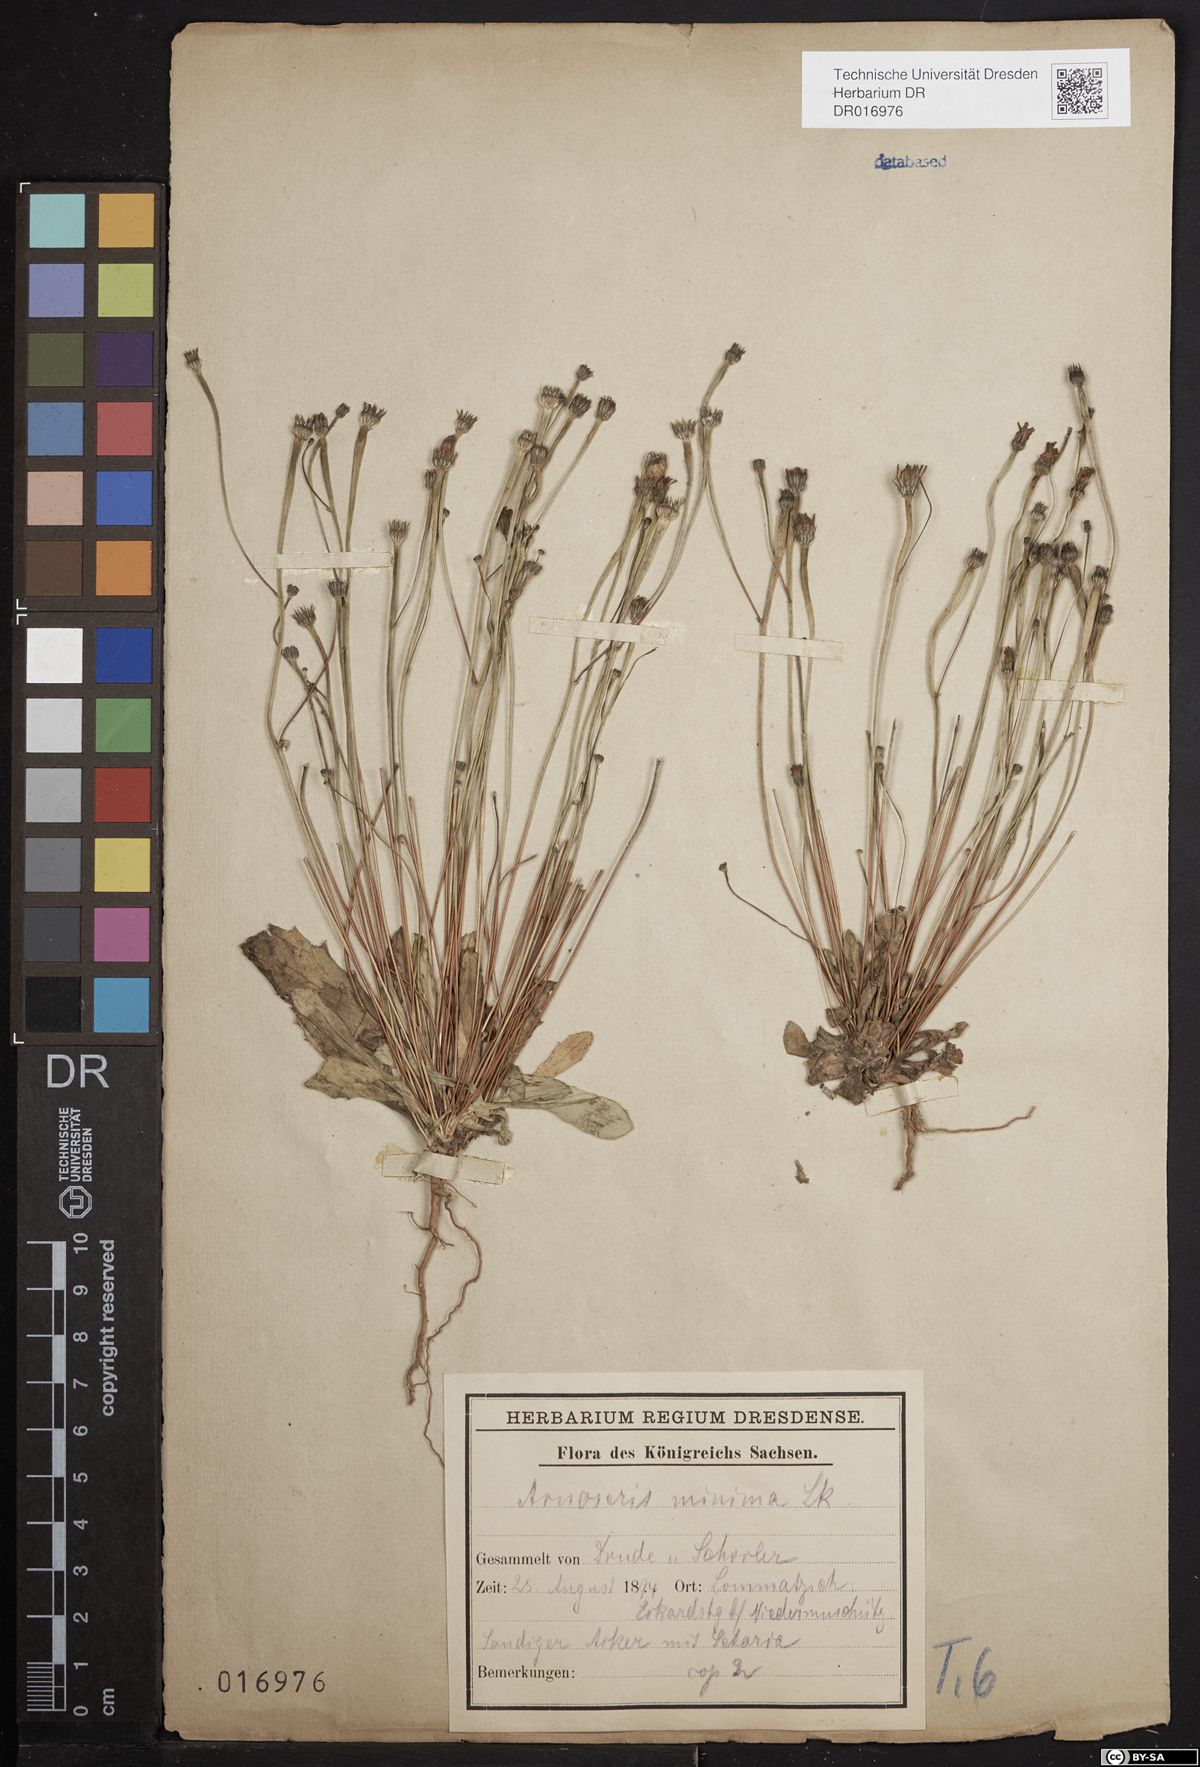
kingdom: Plantae
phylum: Tracheophyta
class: Magnoliopsida
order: Asterales
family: Asteraceae
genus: Arnoseris
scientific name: Arnoseris minima
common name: Lamb's succory
